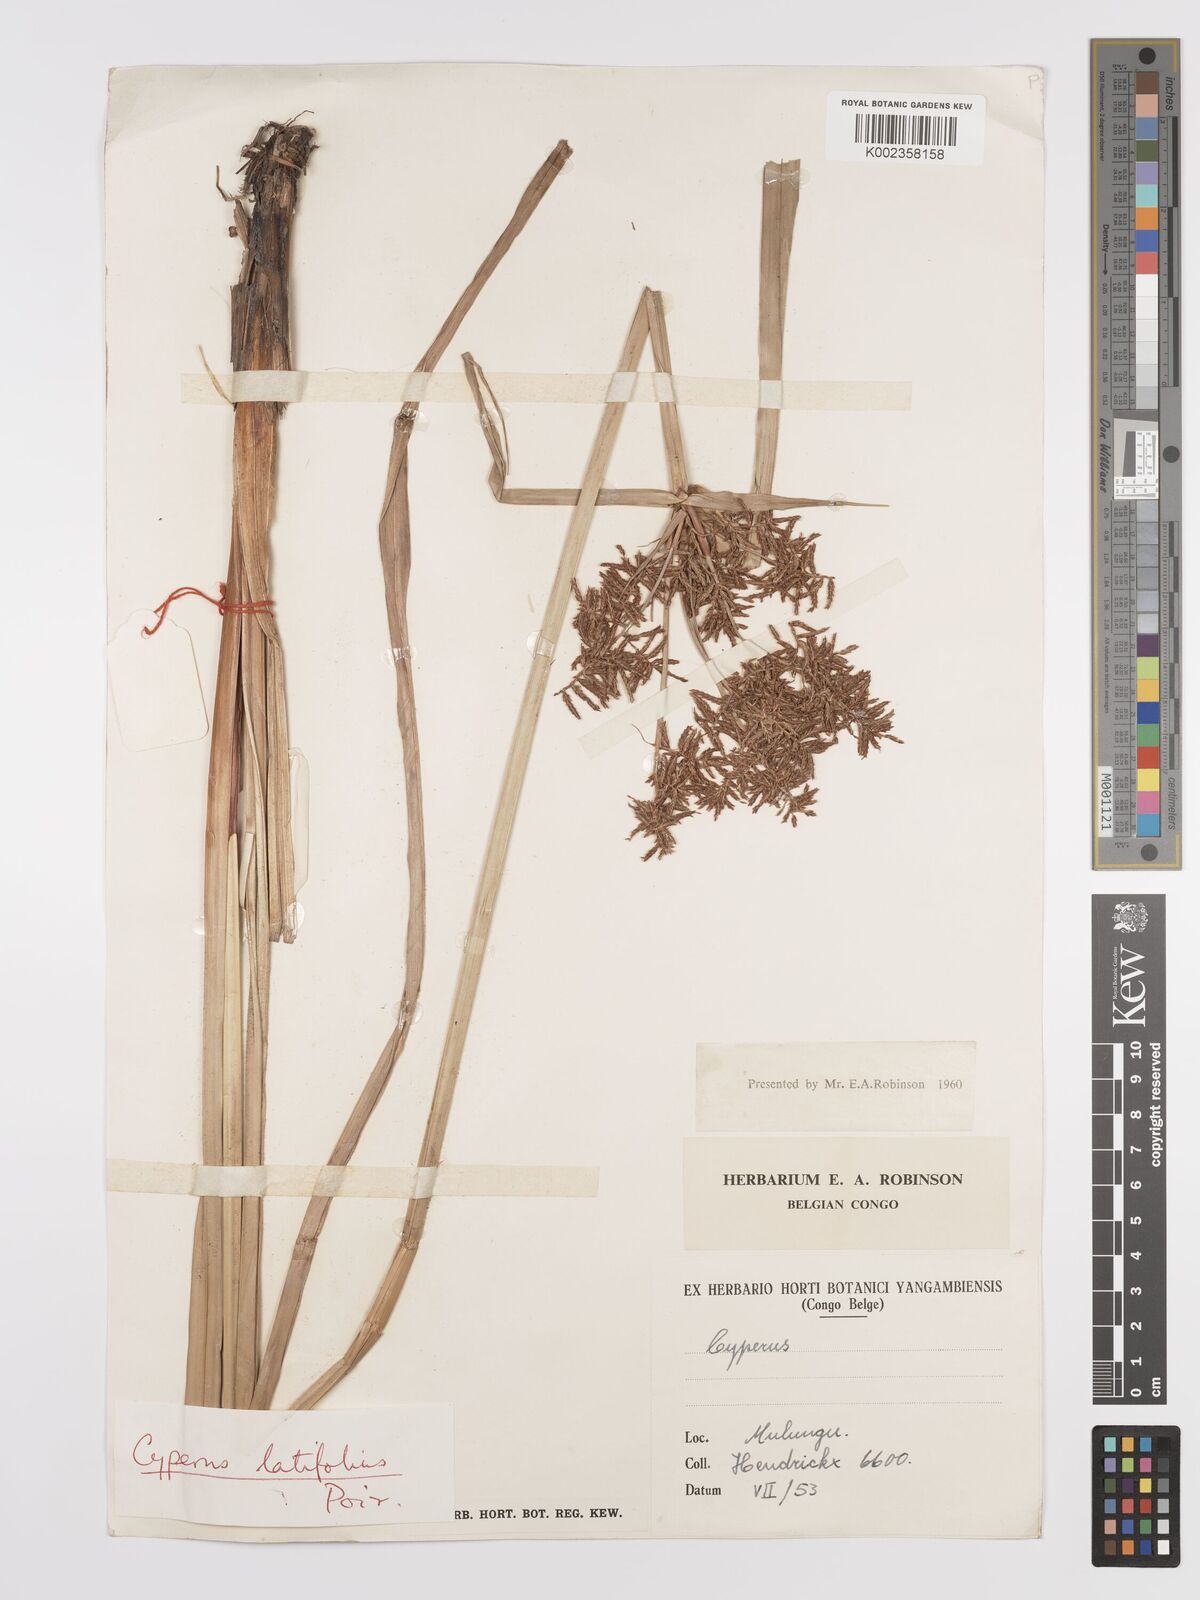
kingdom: Plantae
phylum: Tracheophyta
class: Liliopsida
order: Poales
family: Cyperaceae
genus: Cyperus
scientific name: Cyperus latifolius
